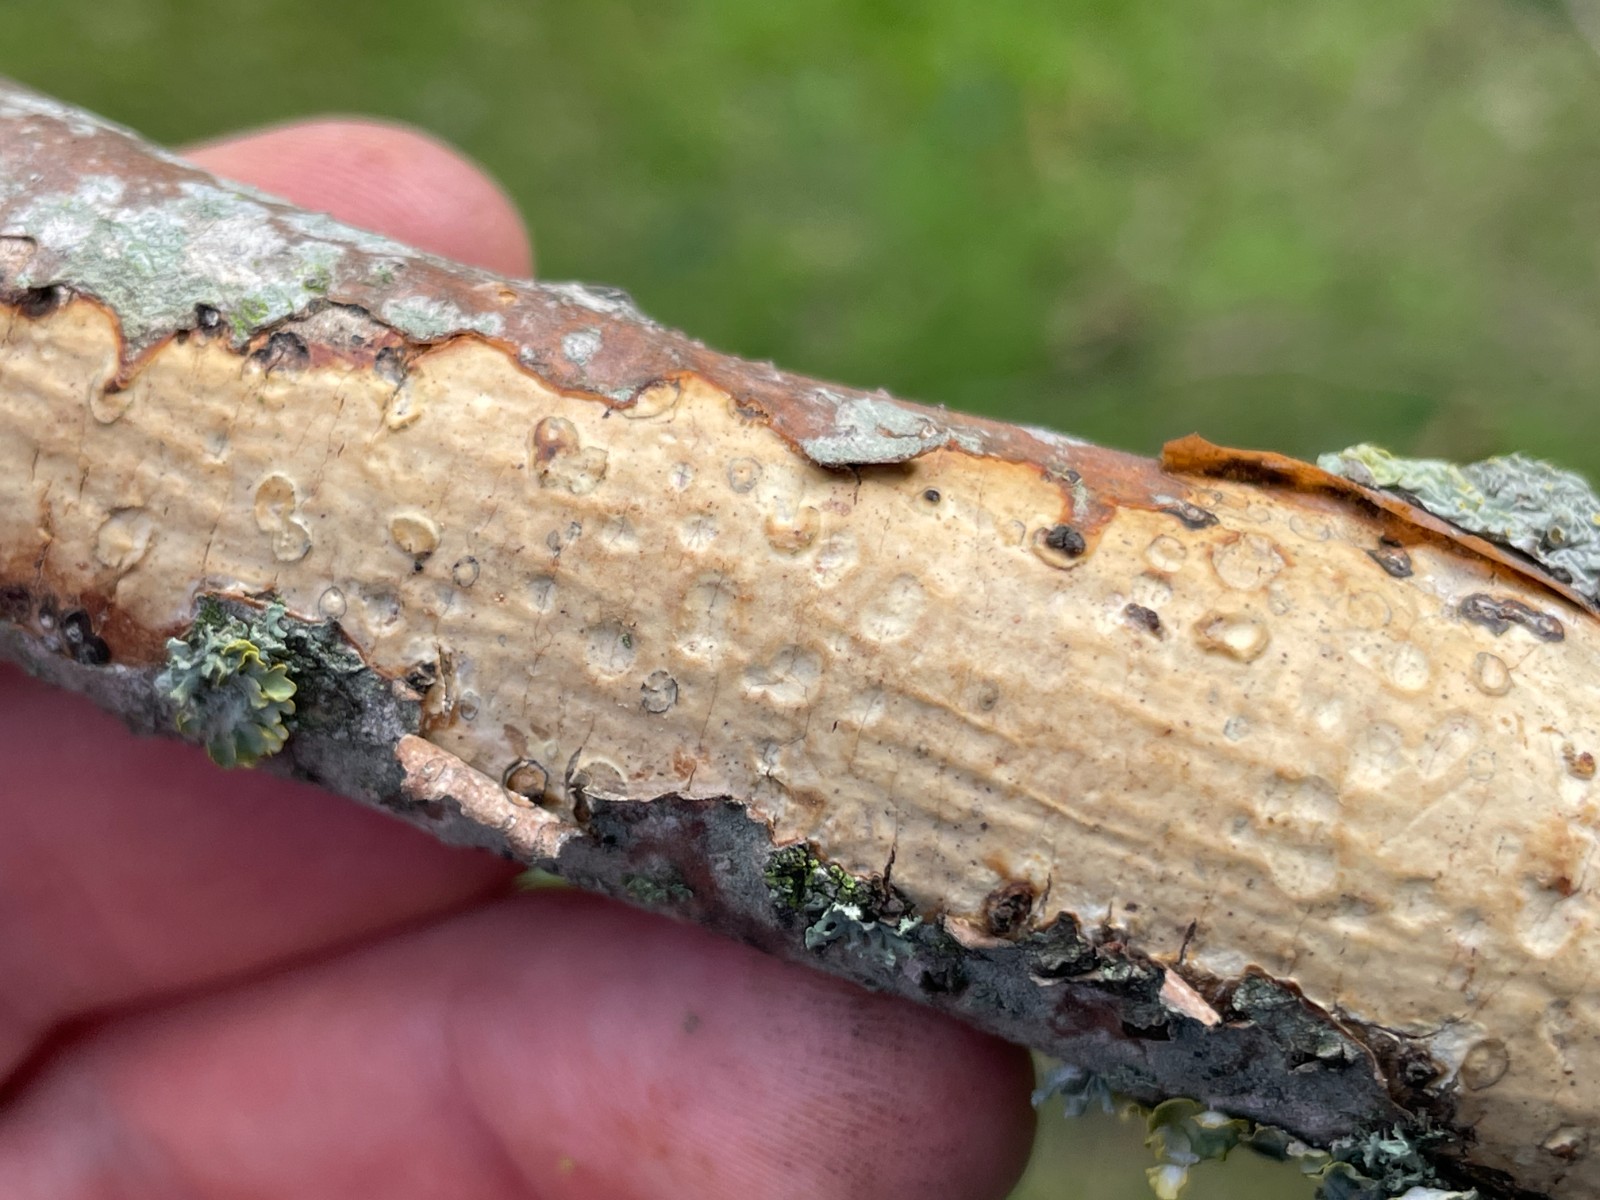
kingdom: Fungi
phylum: Basidiomycota
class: Agaricomycetes
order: Corticiales
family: Vuilleminiaceae
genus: Vuilleminia
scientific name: Vuilleminia comedens
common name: almindelig barksprænger
